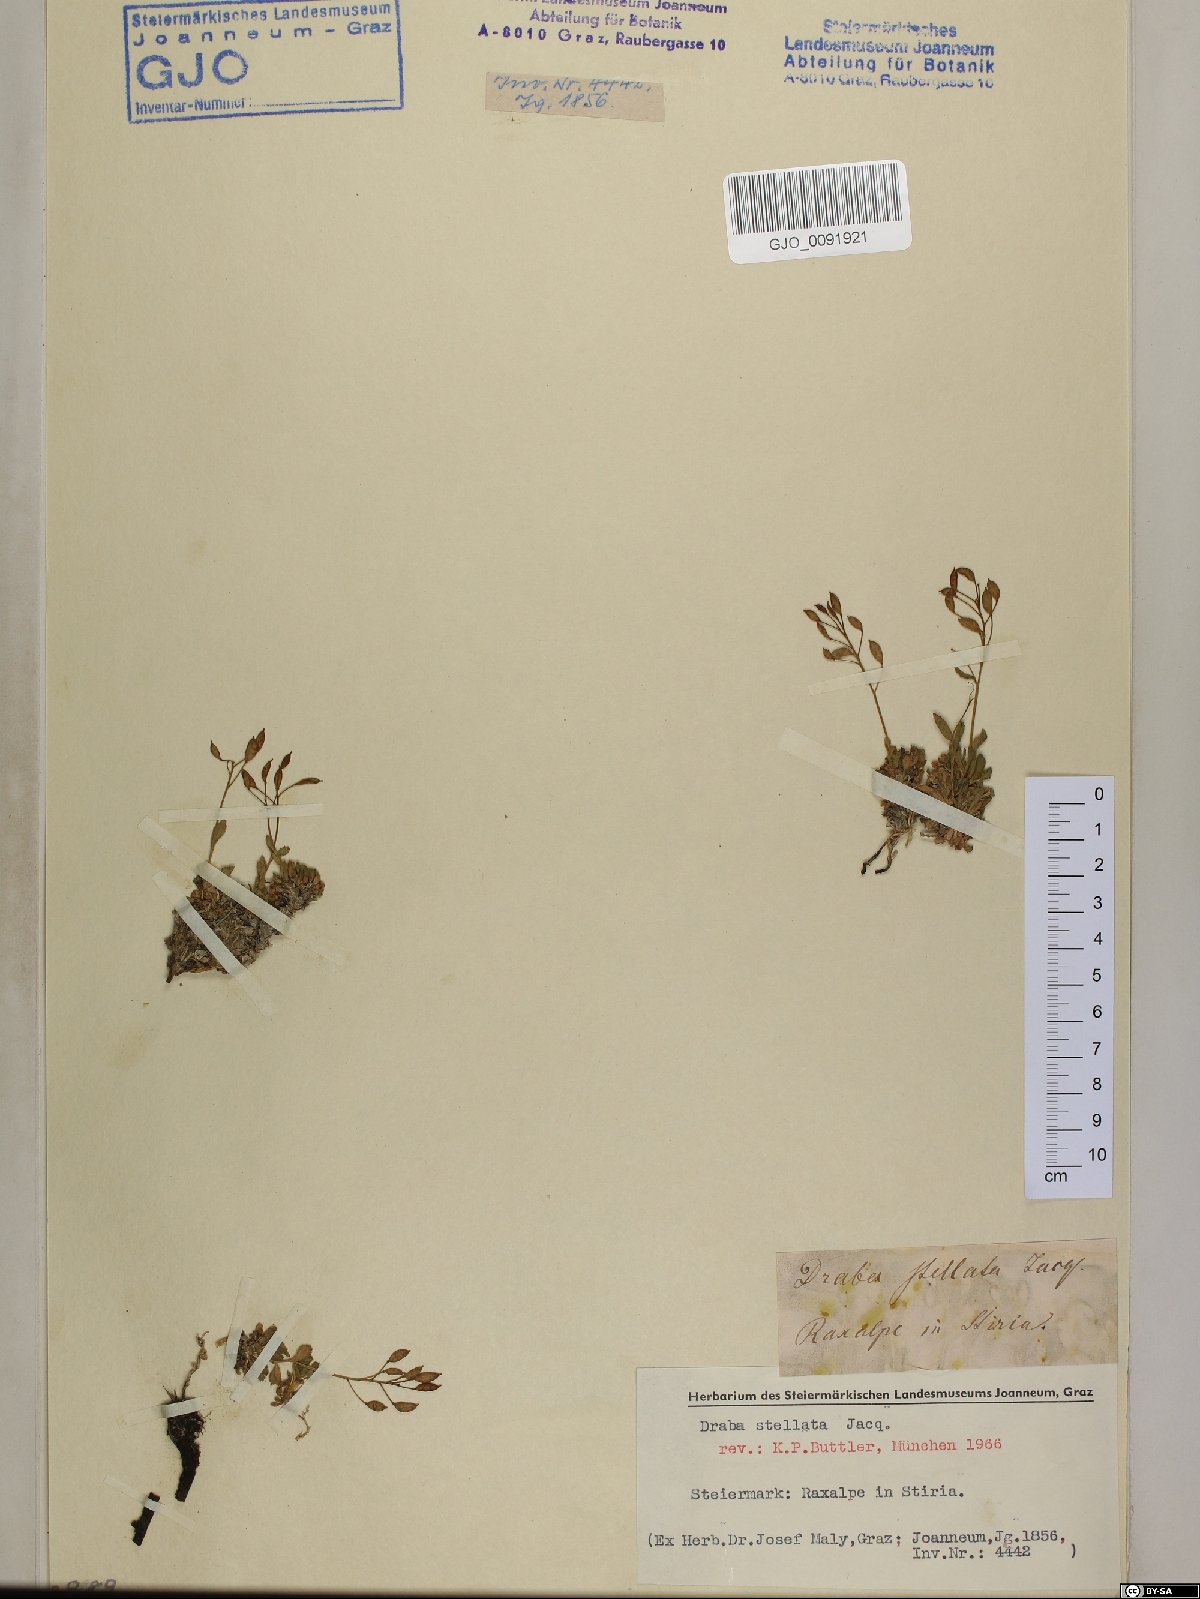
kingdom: Plantae
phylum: Tracheophyta
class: Magnoliopsida
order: Brassicales
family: Brassicaceae
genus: Draba
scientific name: Draba stellata
